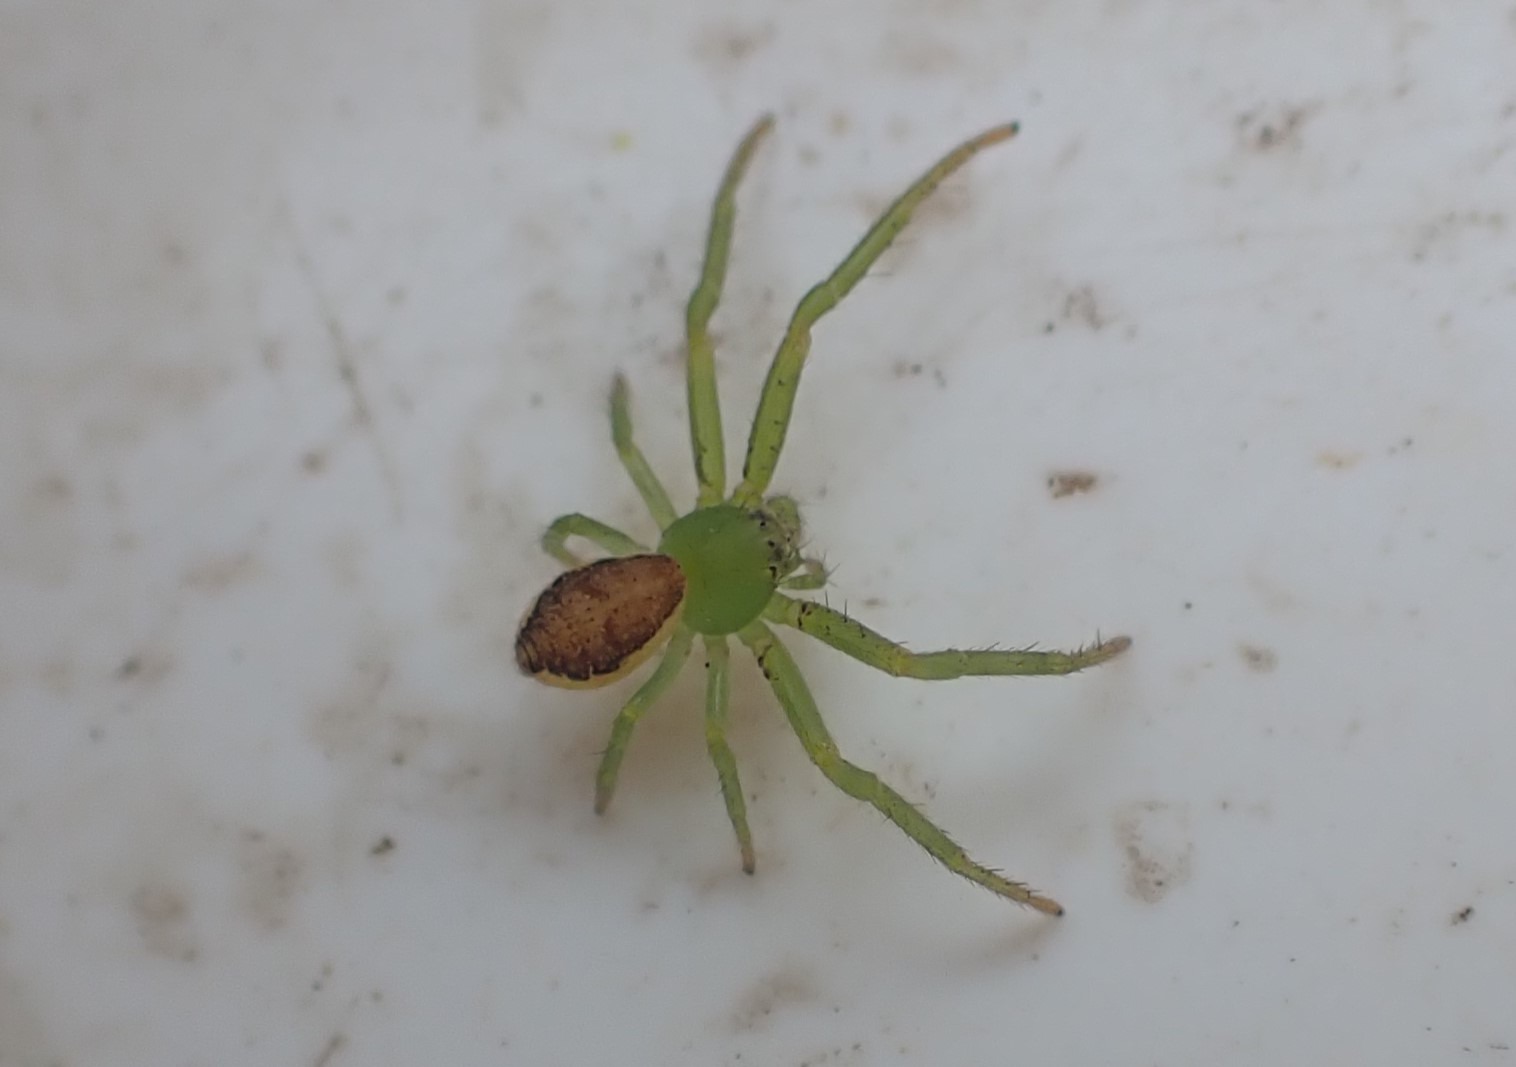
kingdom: Animalia
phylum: Arthropoda
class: Arachnida
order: Araneae
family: Thomisidae
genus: Diaea
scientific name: Diaea dorsata
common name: Grøn krabbeedderkop
